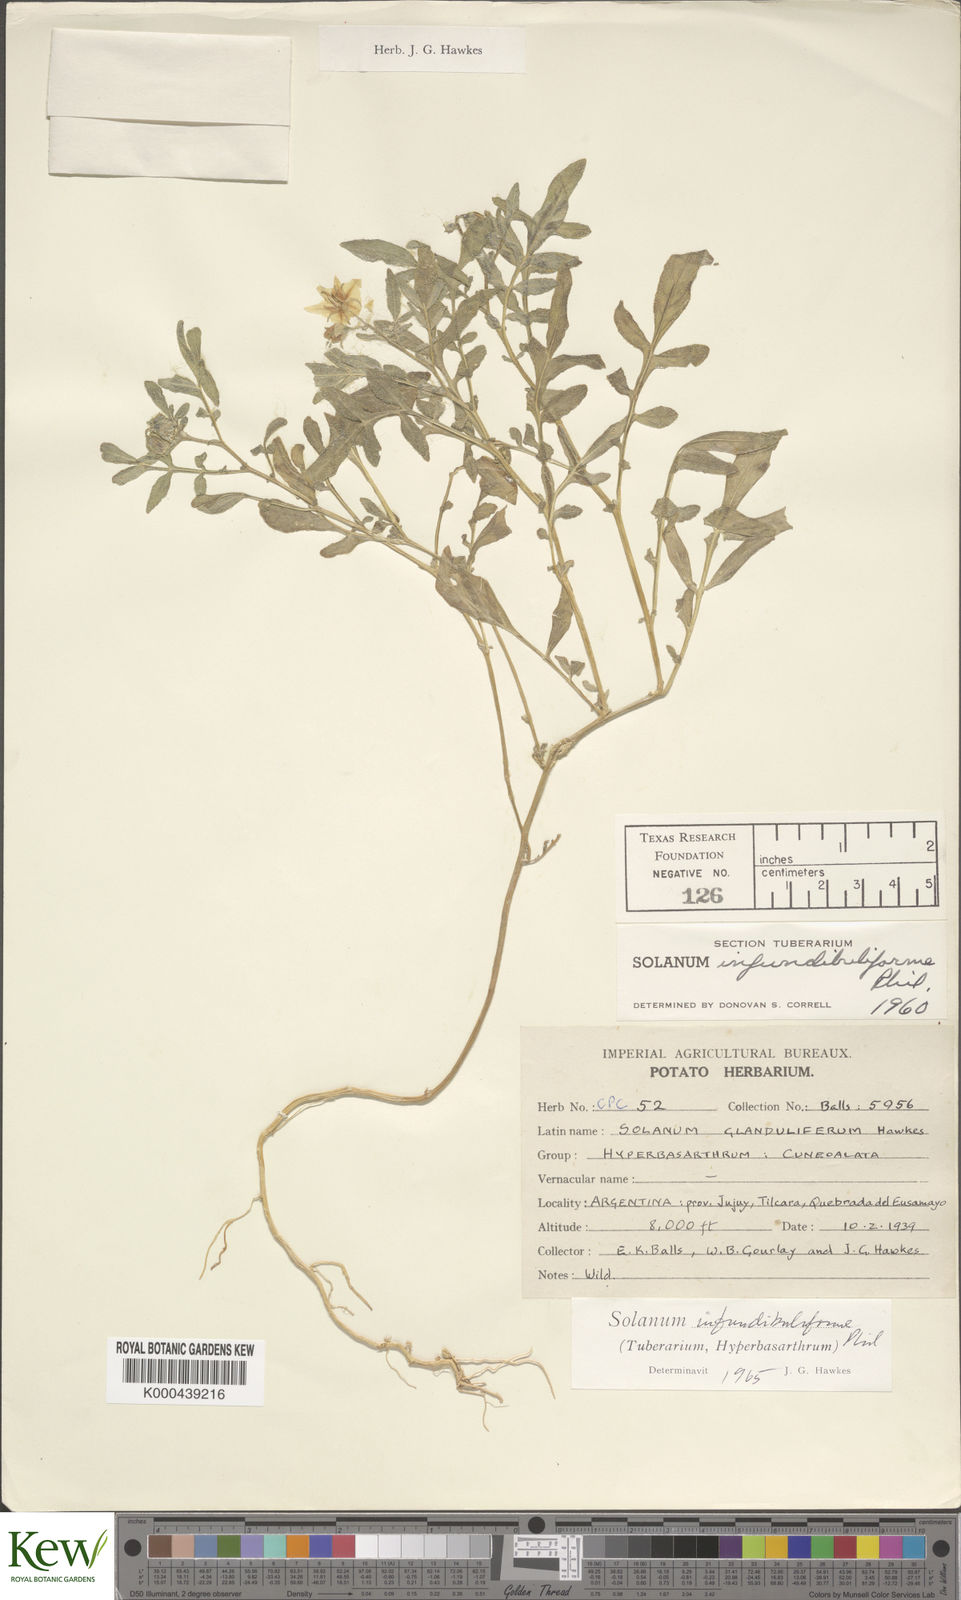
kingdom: Plantae
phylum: Tracheophyta
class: Magnoliopsida
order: Solanales
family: Solanaceae
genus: Solanum
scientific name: Solanum infundibuliforme
